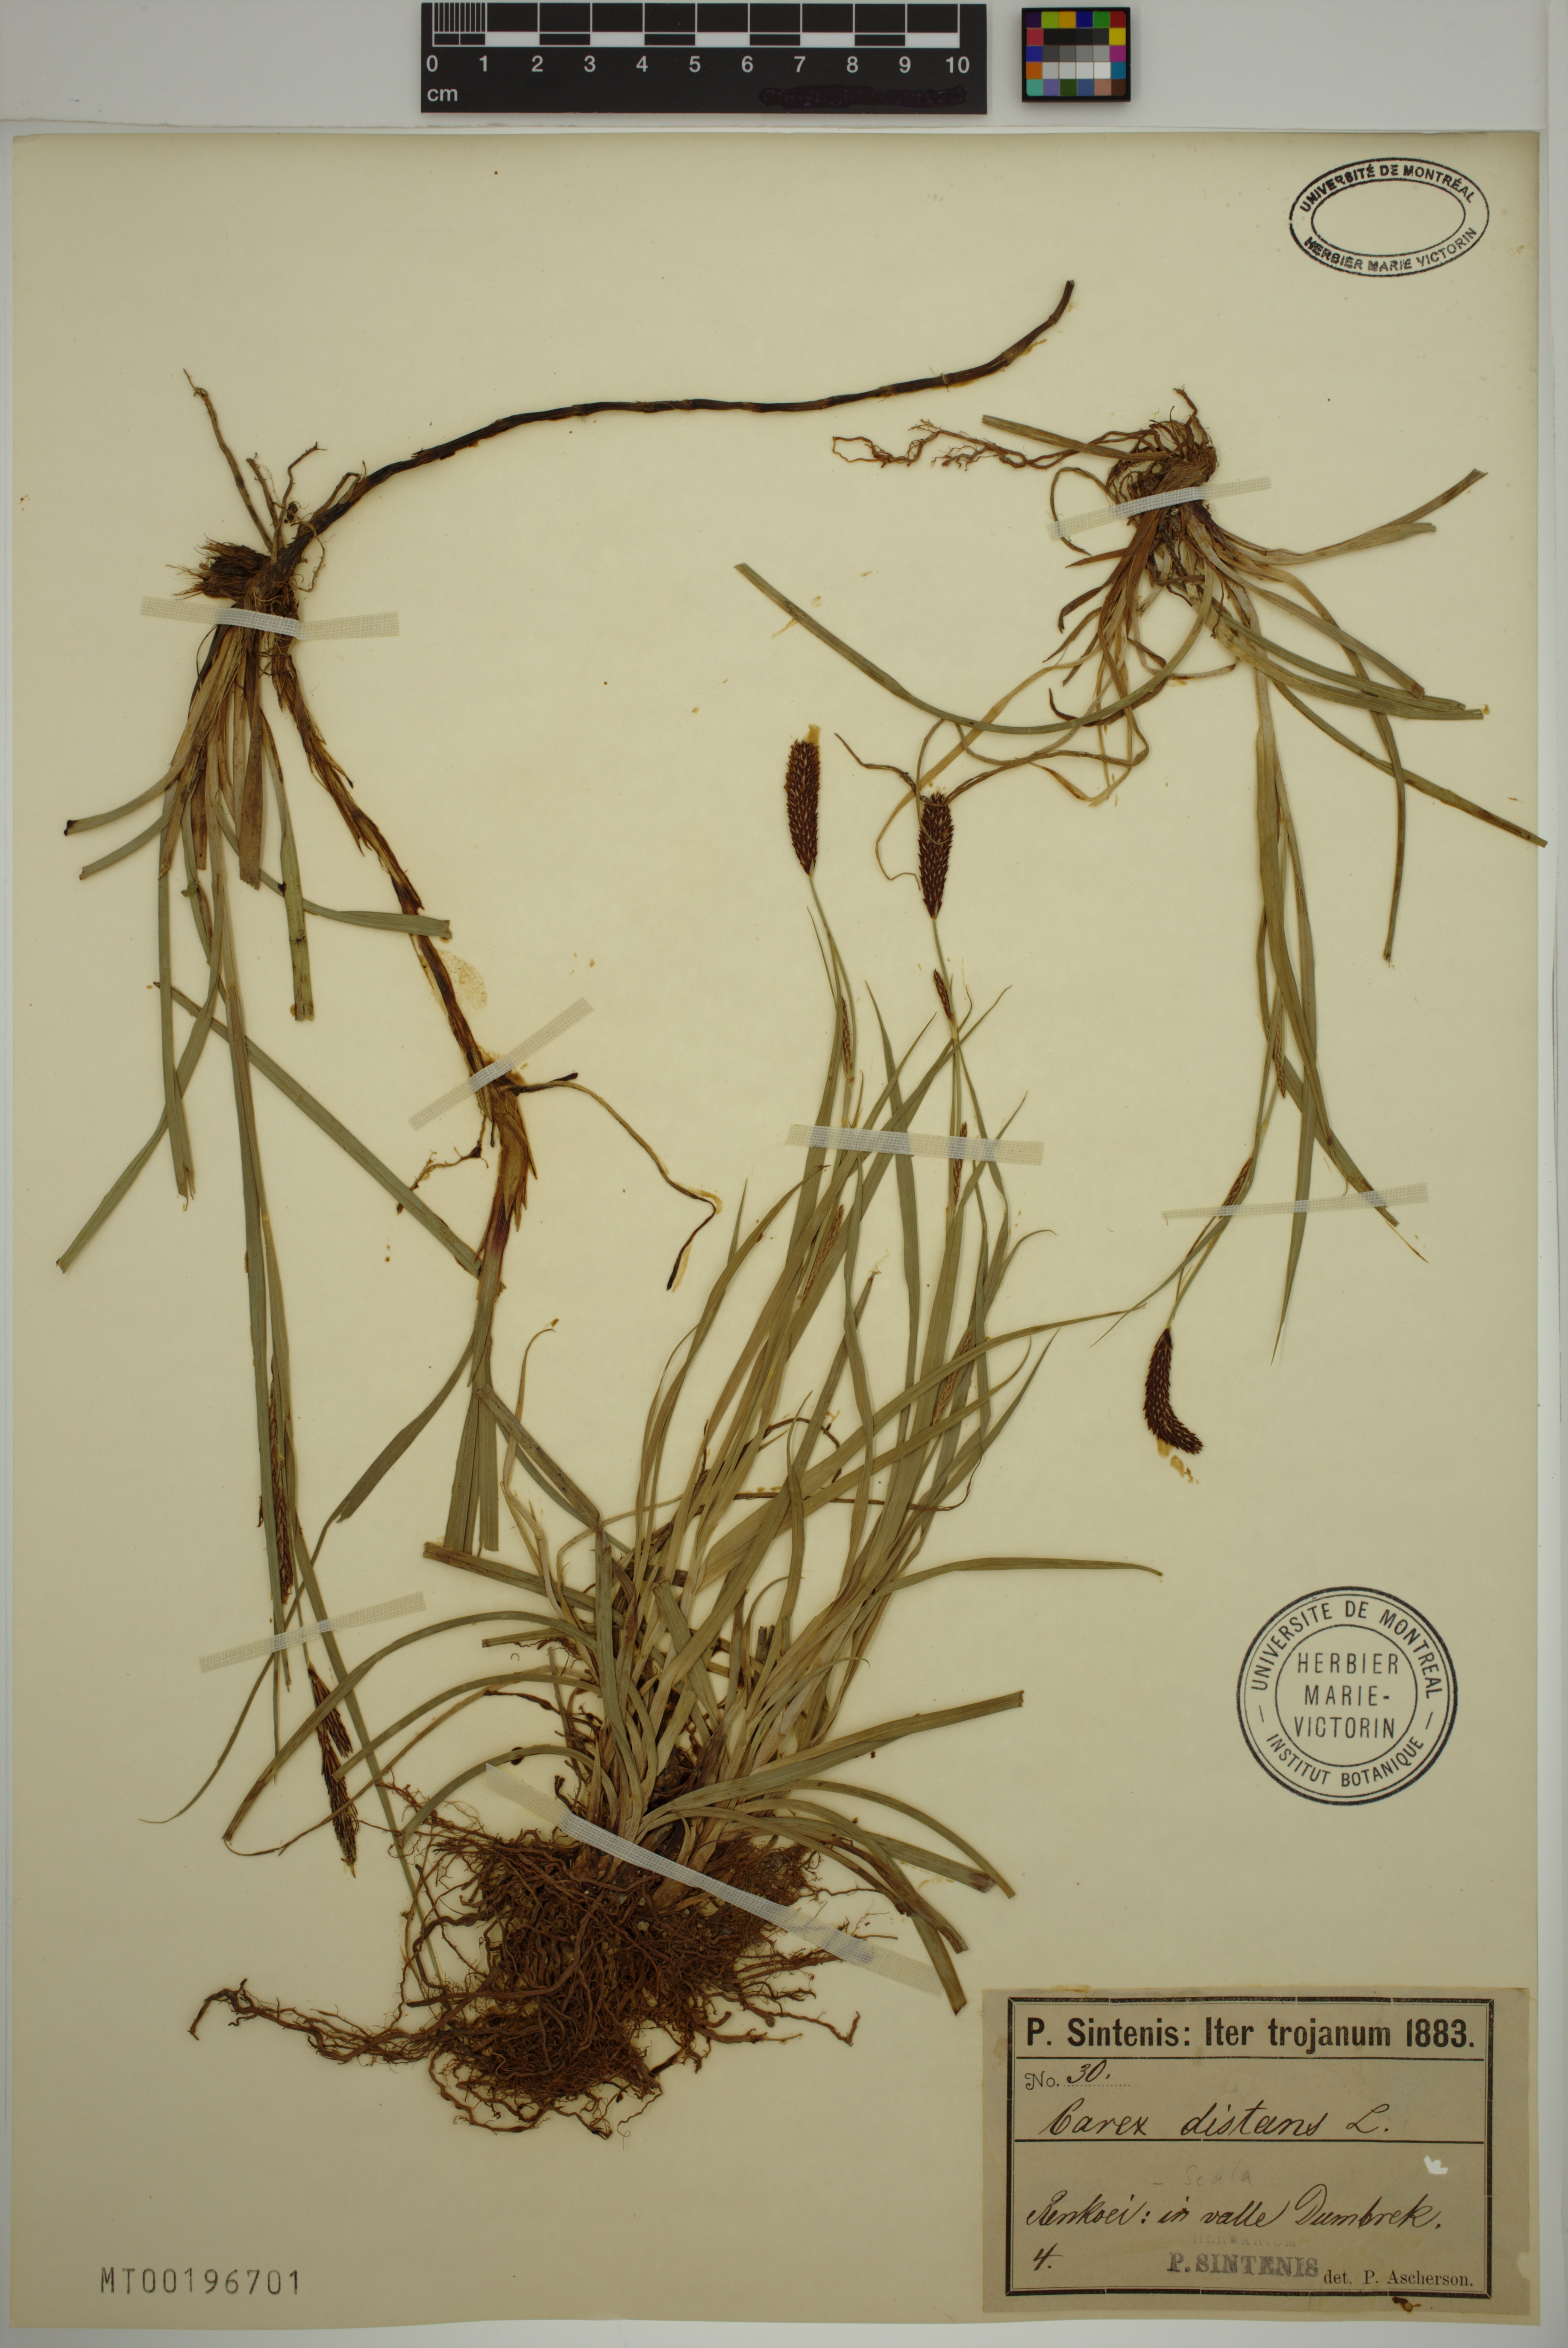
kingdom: Plantae
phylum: Tracheophyta
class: Liliopsida
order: Poales
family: Cyperaceae
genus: Carex
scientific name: Carex distans
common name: Distant sedge
